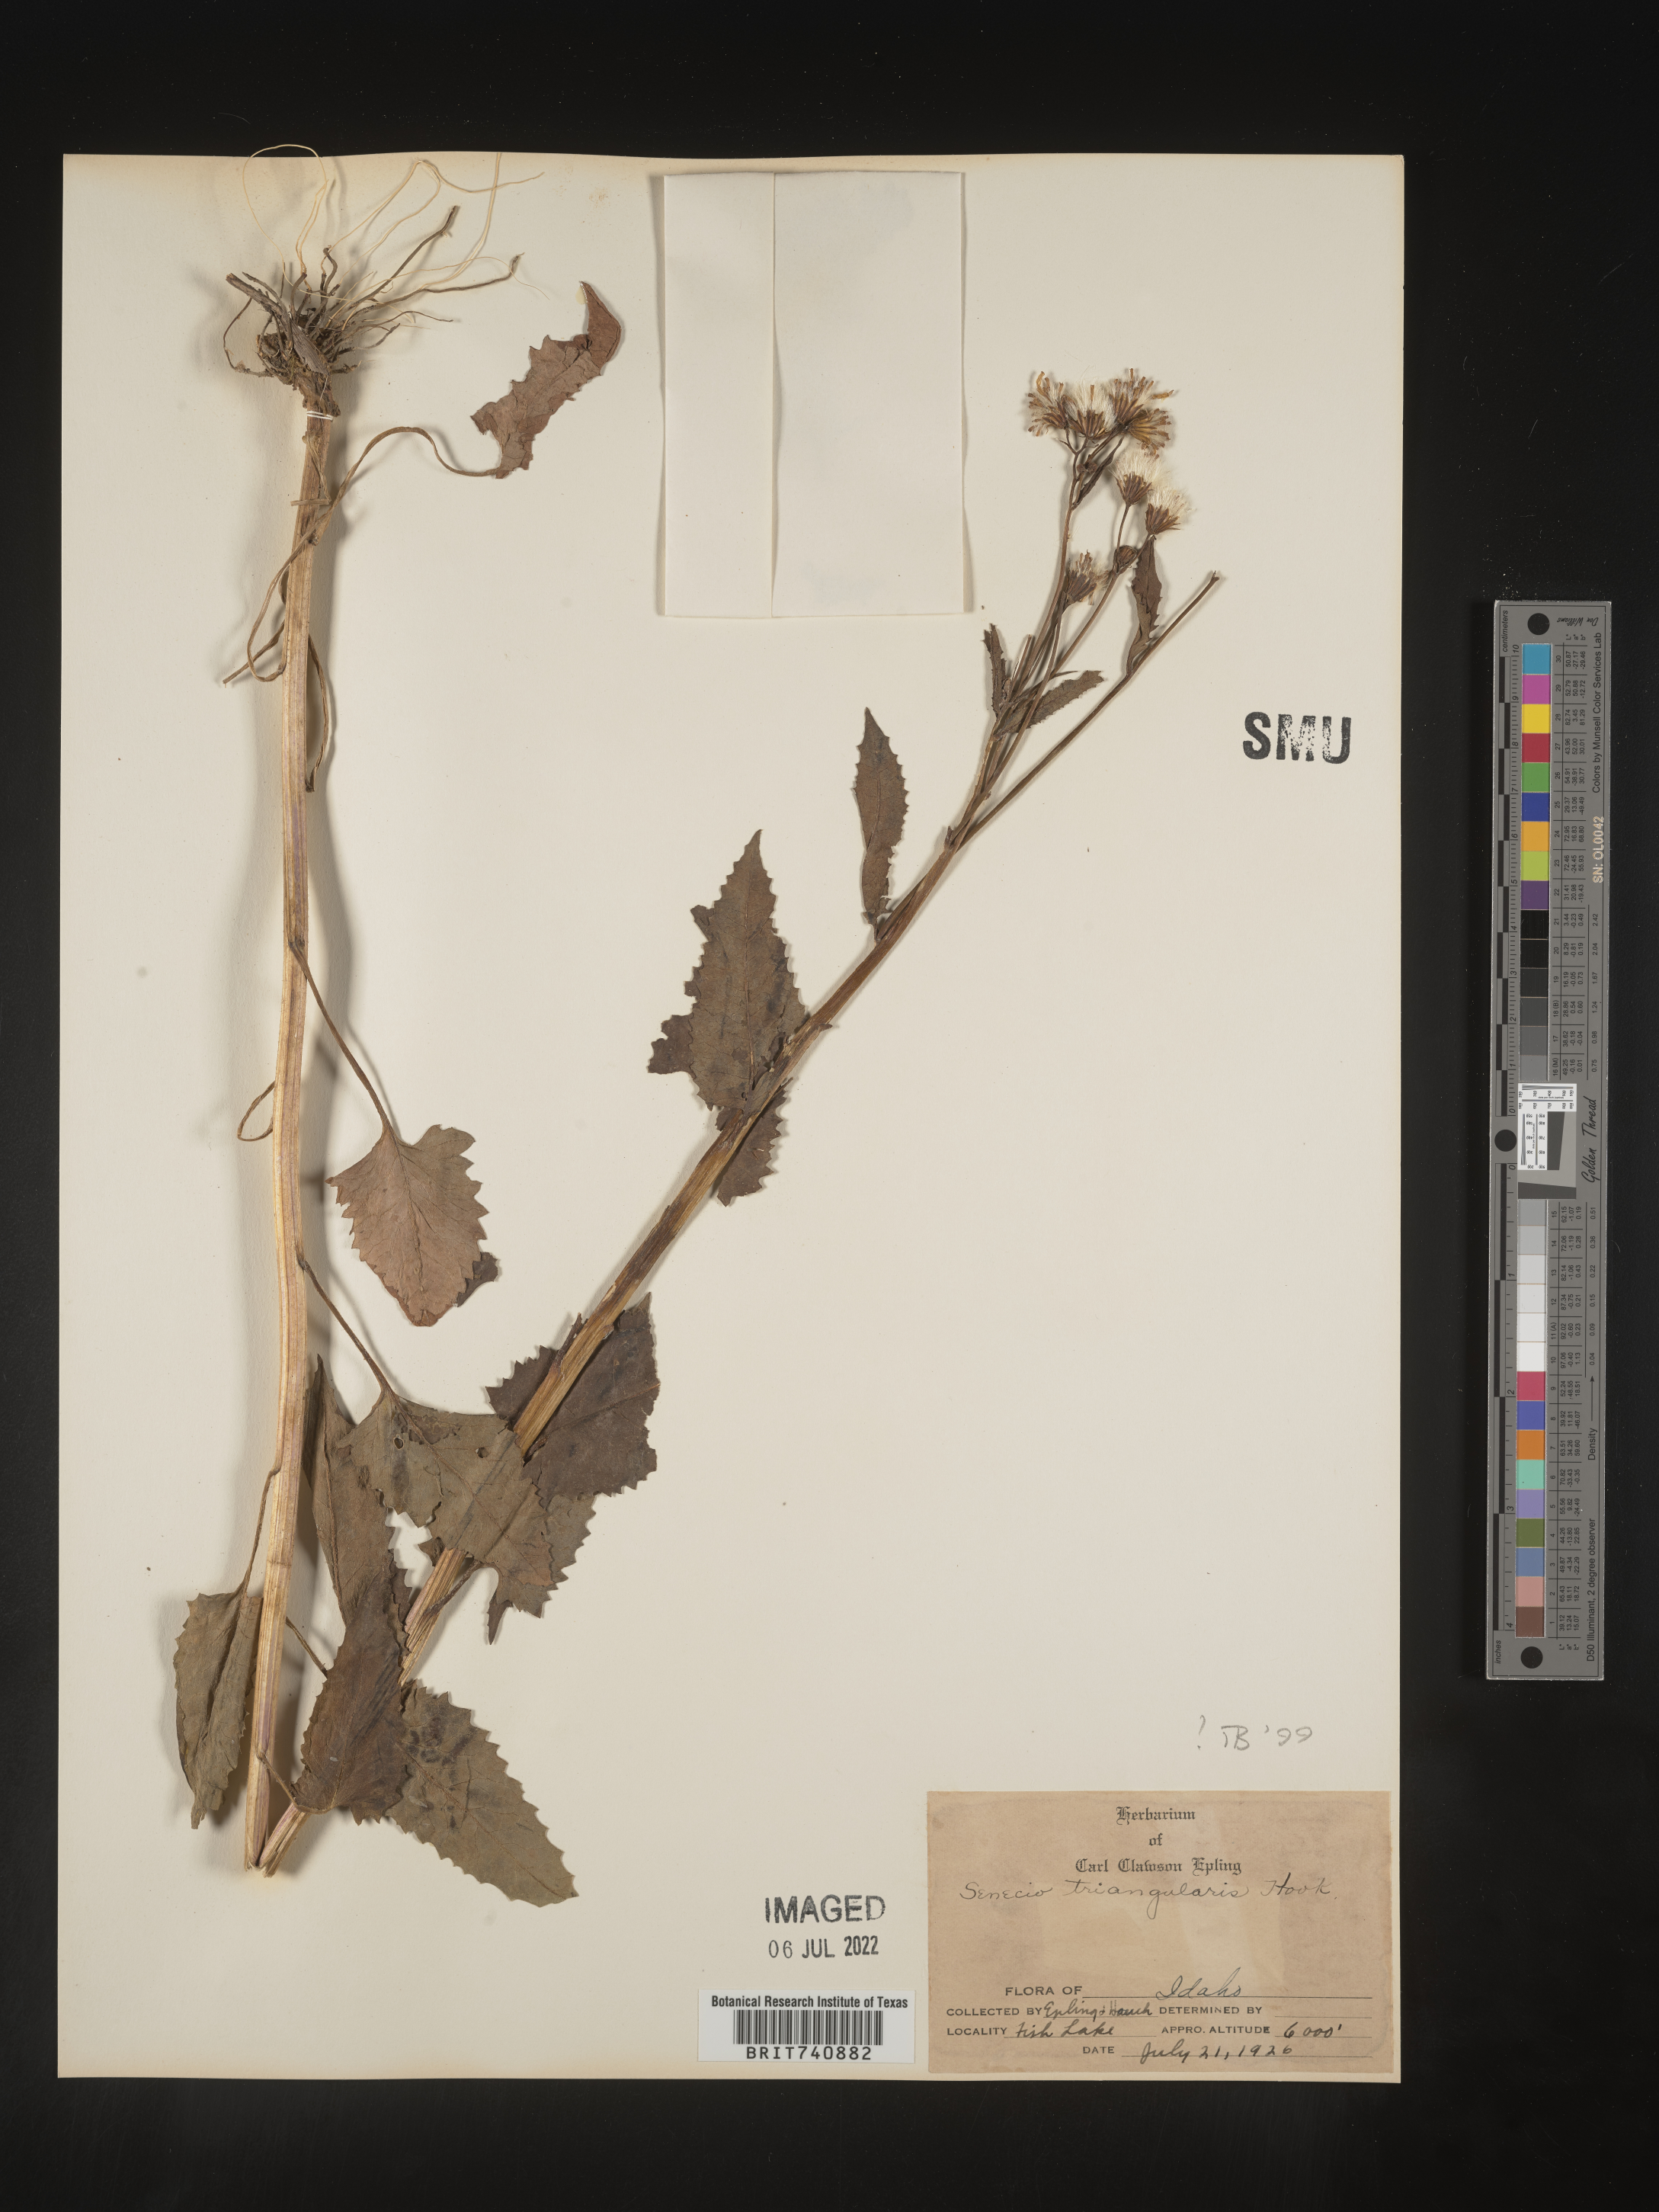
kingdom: Plantae
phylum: Tracheophyta
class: Magnoliopsida
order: Asterales
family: Asteraceae
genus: Senecio
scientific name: Senecio triangularis
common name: Arrowleaf butterweed
